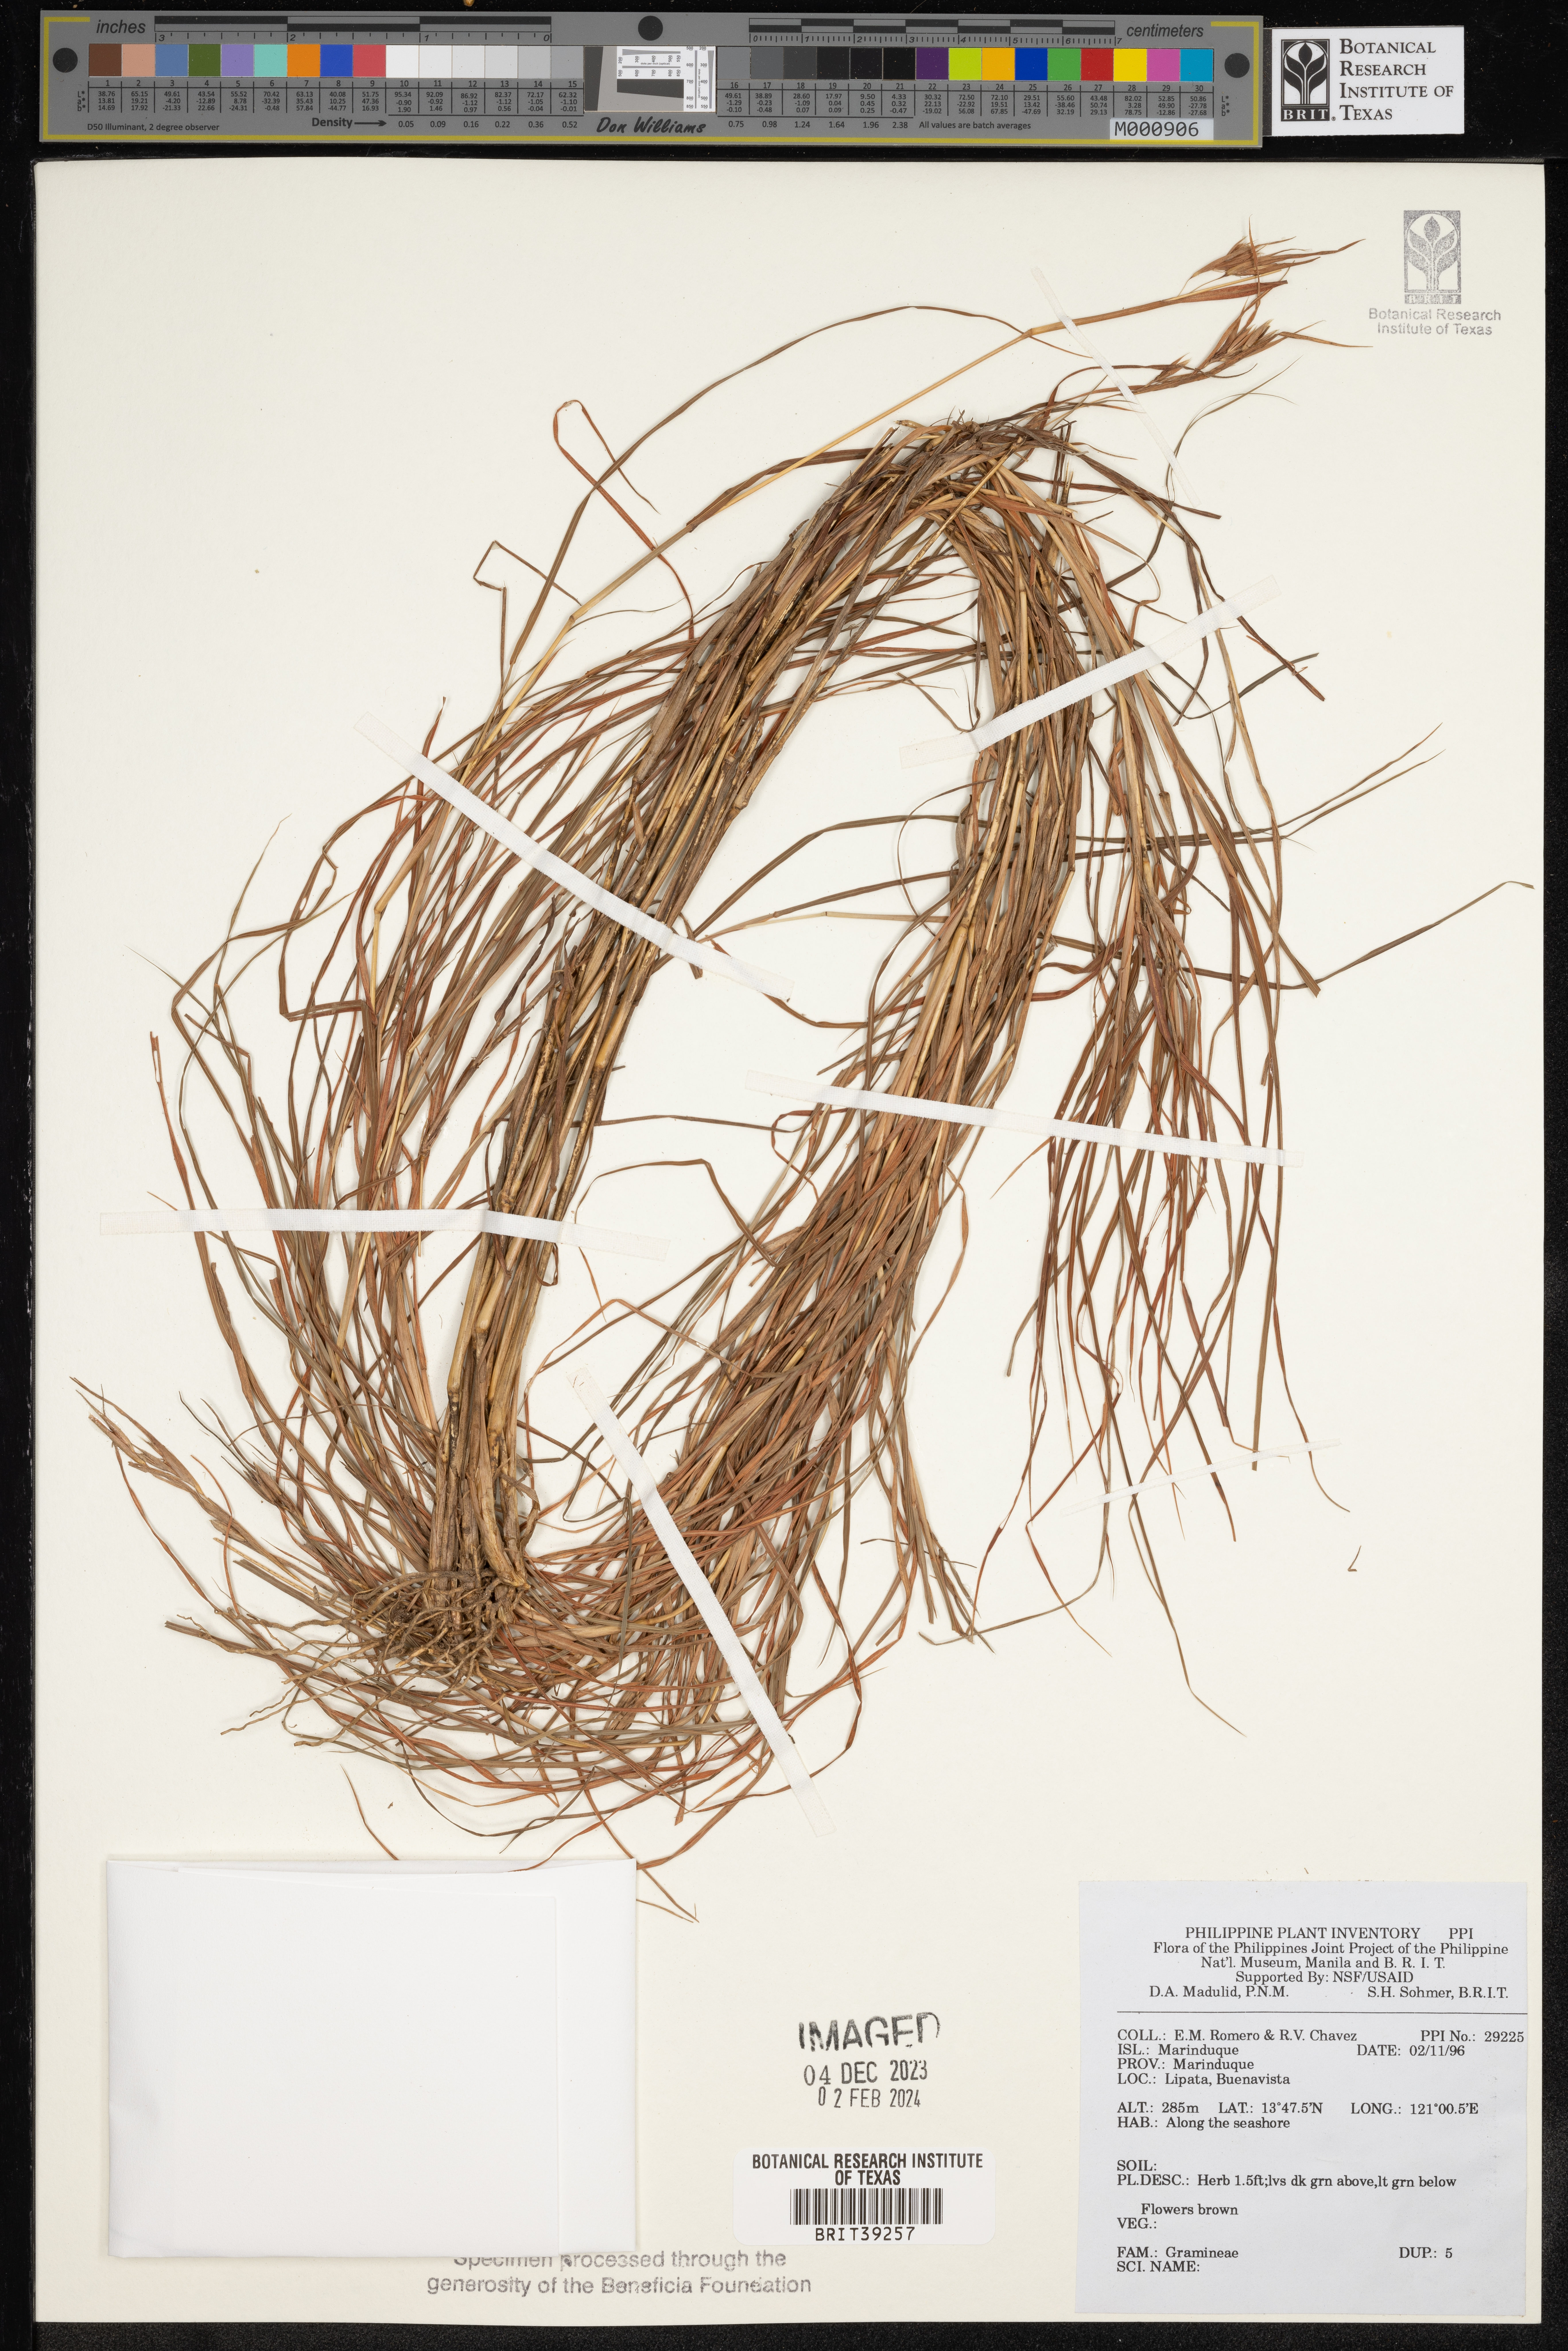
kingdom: Plantae
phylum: Tracheophyta
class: Liliopsida
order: Poales
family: Poaceae
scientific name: Poaceae
